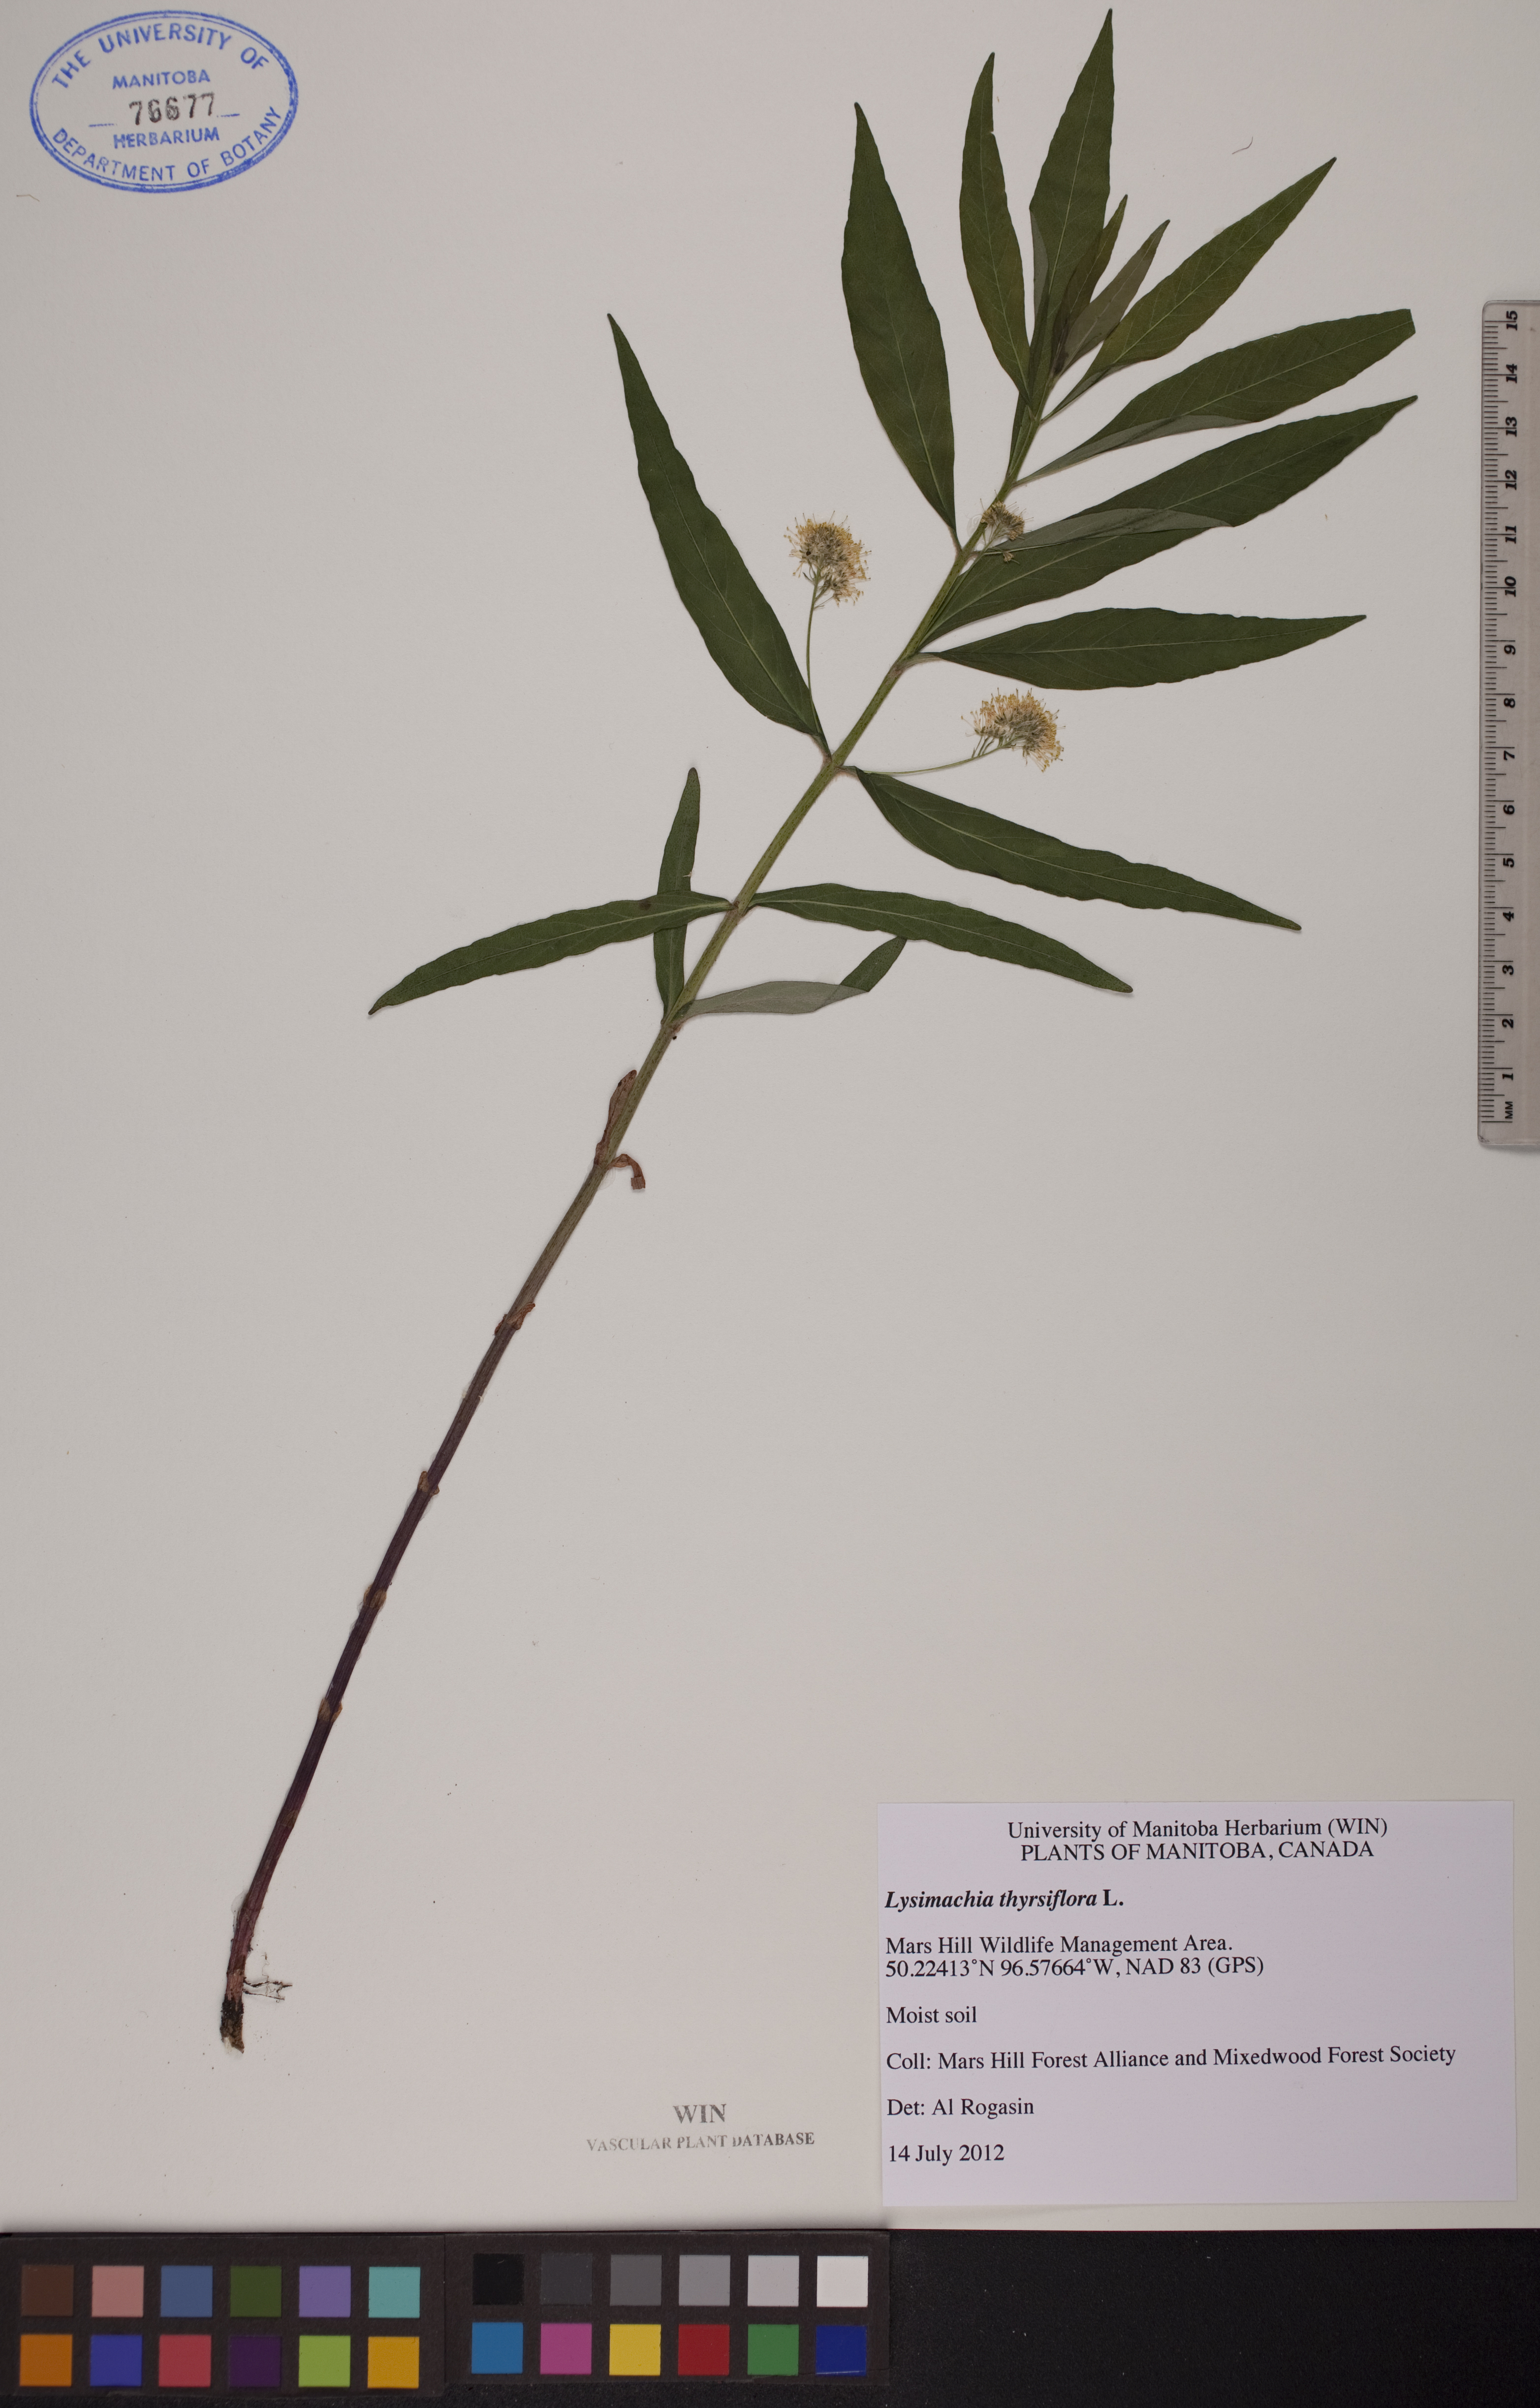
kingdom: Plantae
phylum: Tracheophyta
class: Magnoliopsida
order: Ericales
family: Primulaceae
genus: Lysimachia
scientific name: Lysimachia thyrsiflora
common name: Tufted loosestrife
